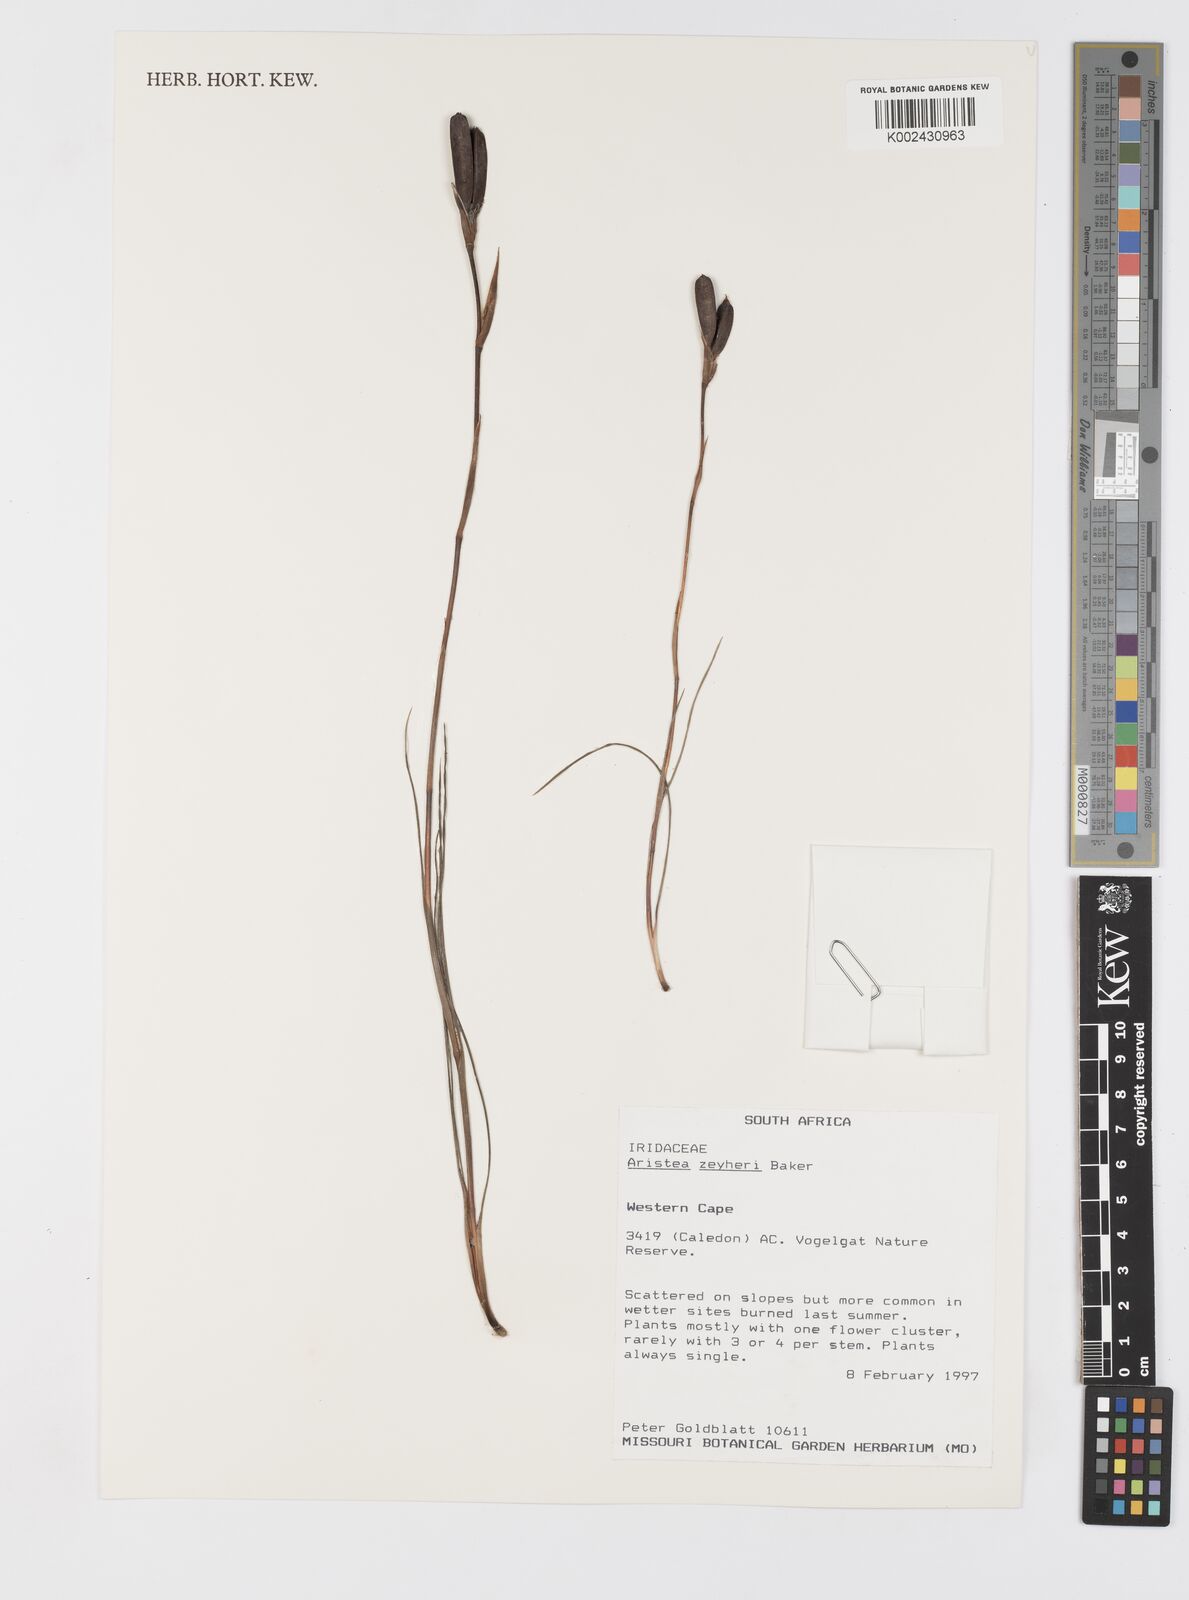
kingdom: Plantae
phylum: Tracheophyta
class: Liliopsida
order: Asparagales
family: Iridaceae
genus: Aristea
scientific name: Aristea zeyheri
